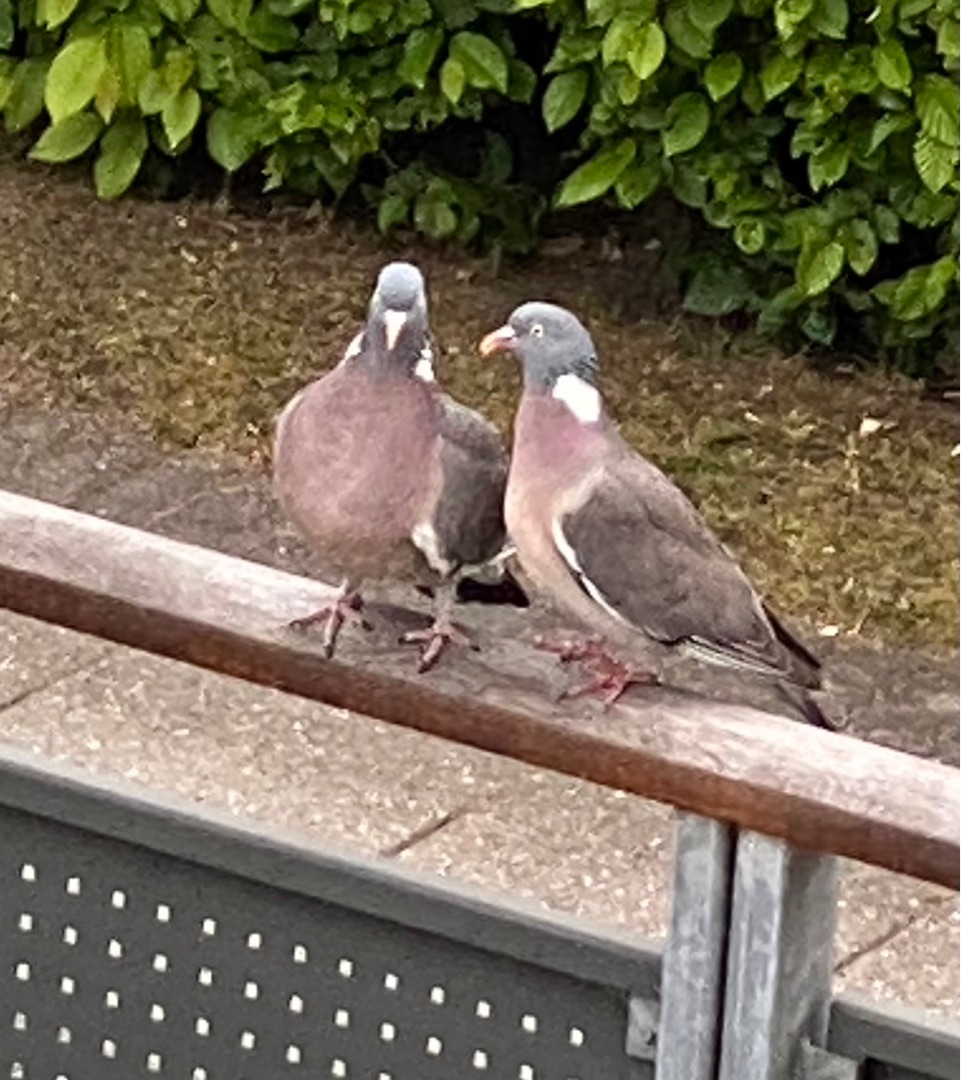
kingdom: Animalia
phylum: Chordata
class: Aves
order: Columbiformes
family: Columbidae
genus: Columba
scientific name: Columba palumbus
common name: Ringdue
